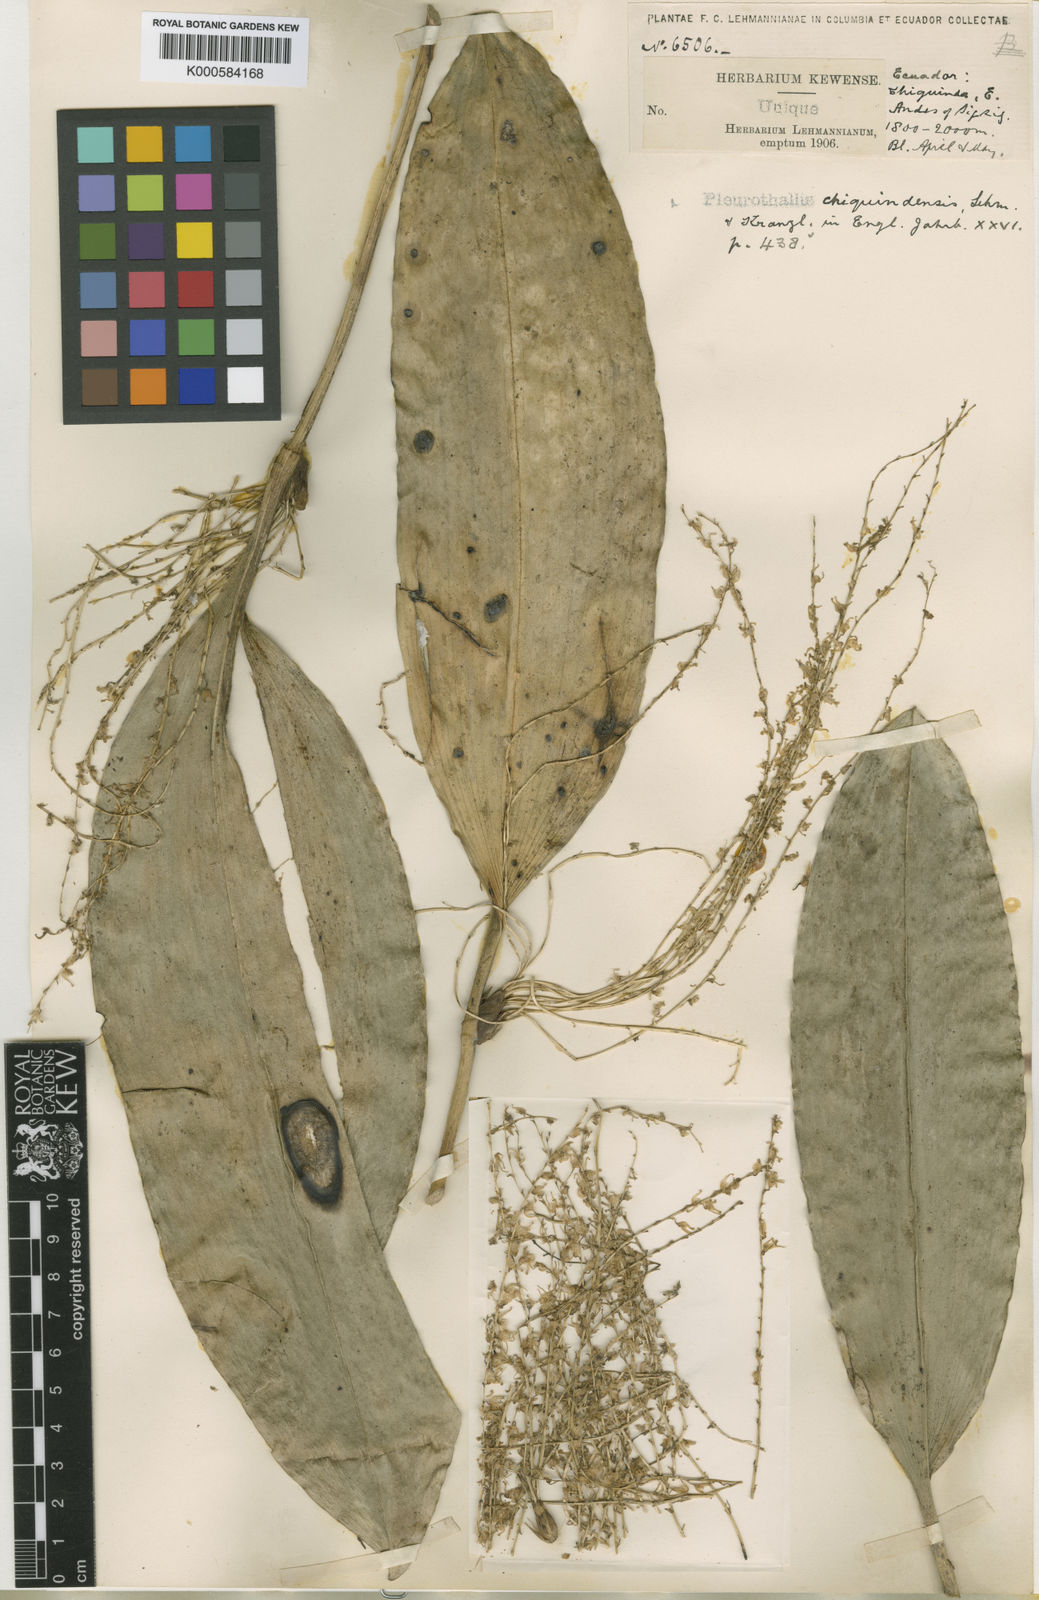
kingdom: Plantae
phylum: Tracheophyta
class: Liliopsida
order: Asparagales
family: Orchidaceae
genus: Pleurothallis
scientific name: Pleurothallis
